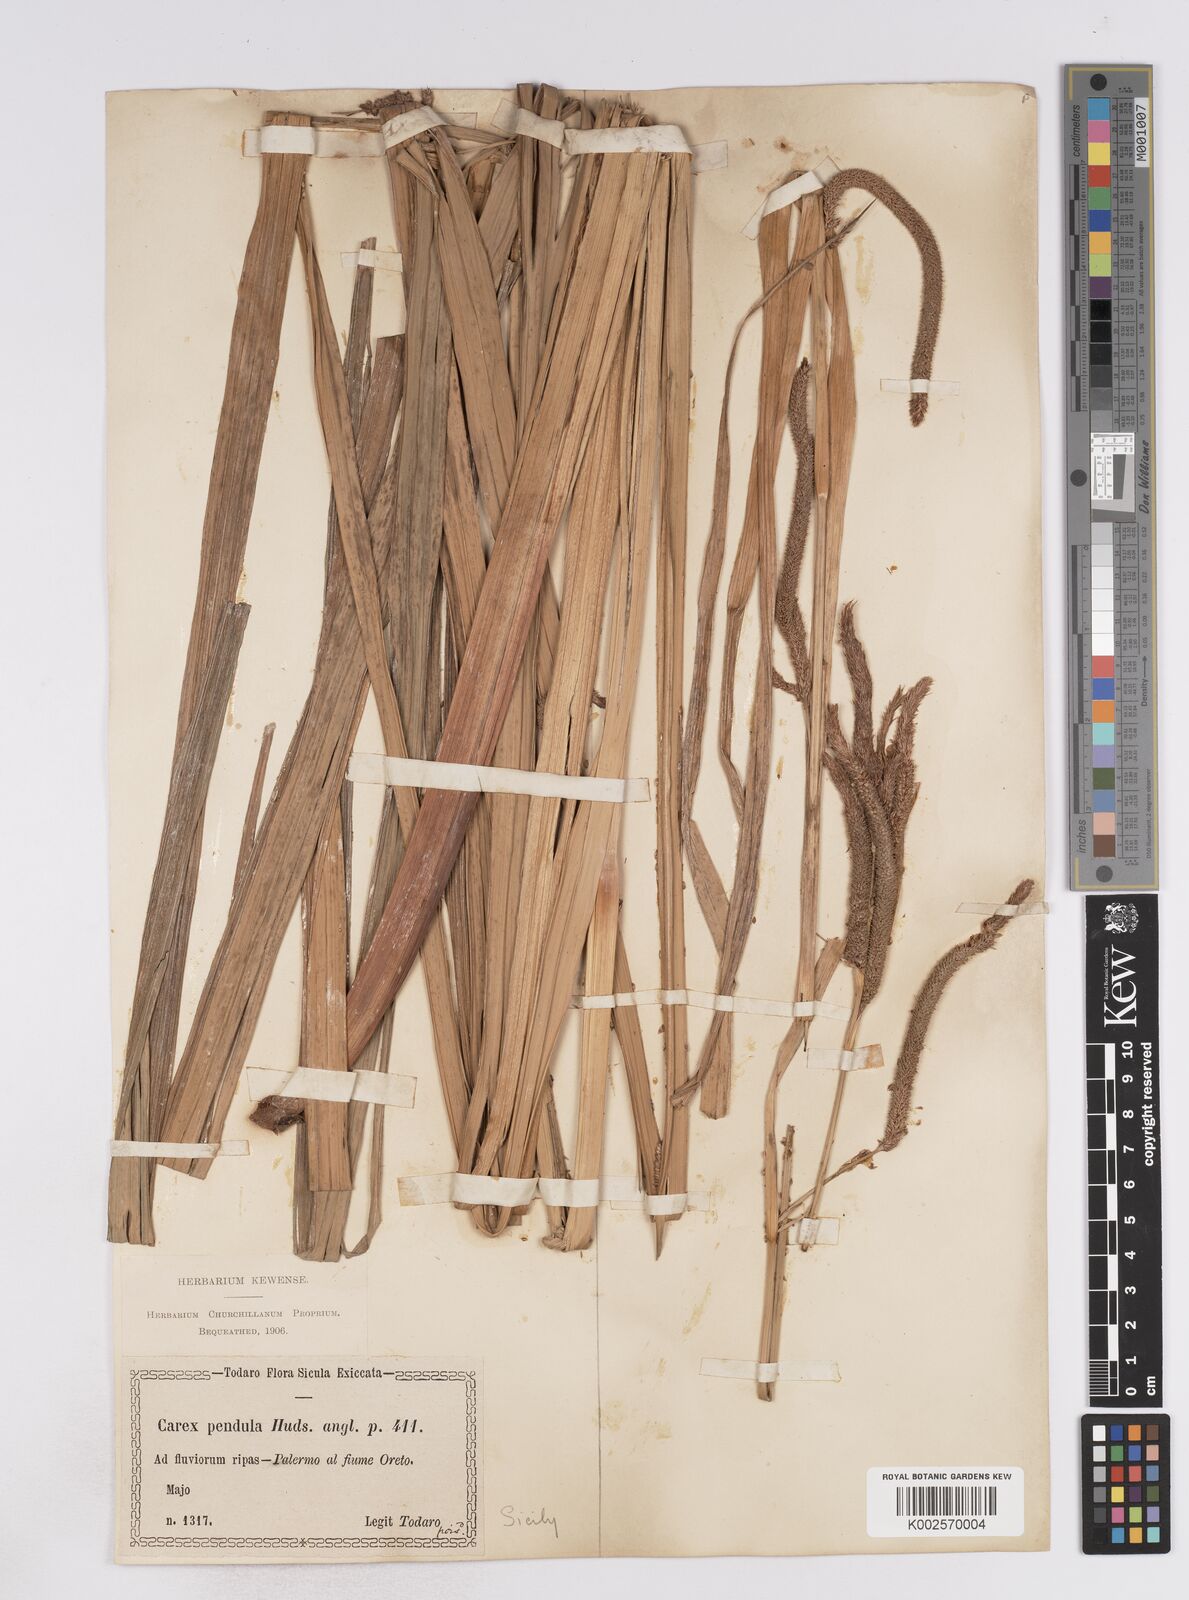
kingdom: Plantae
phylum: Tracheophyta
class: Liliopsida
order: Poales
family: Cyperaceae
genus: Carex
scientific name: Carex pendula
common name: Pendulous sedge
